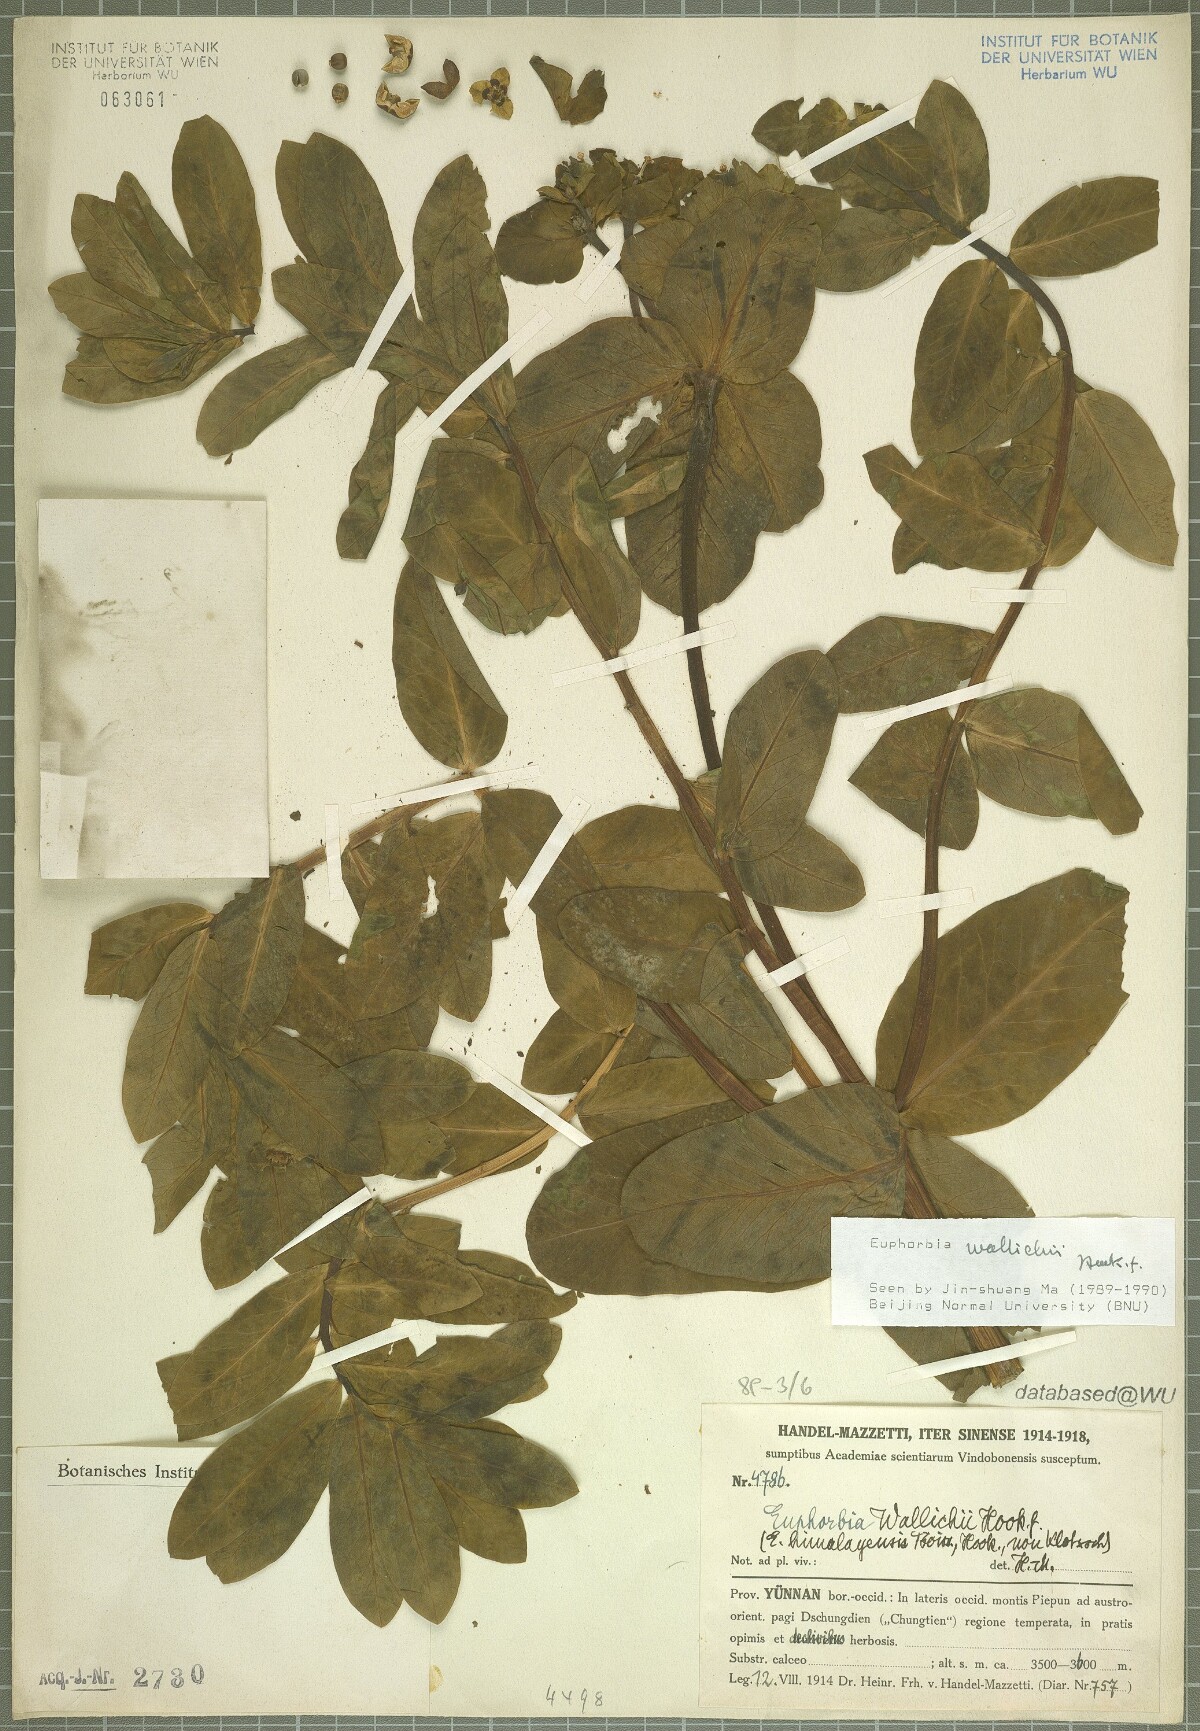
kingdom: Plantae
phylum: Tracheophyta
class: Magnoliopsida
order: Malpighiales
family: Euphorbiaceae
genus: Euphorbia
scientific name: Euphorbia wallichii
